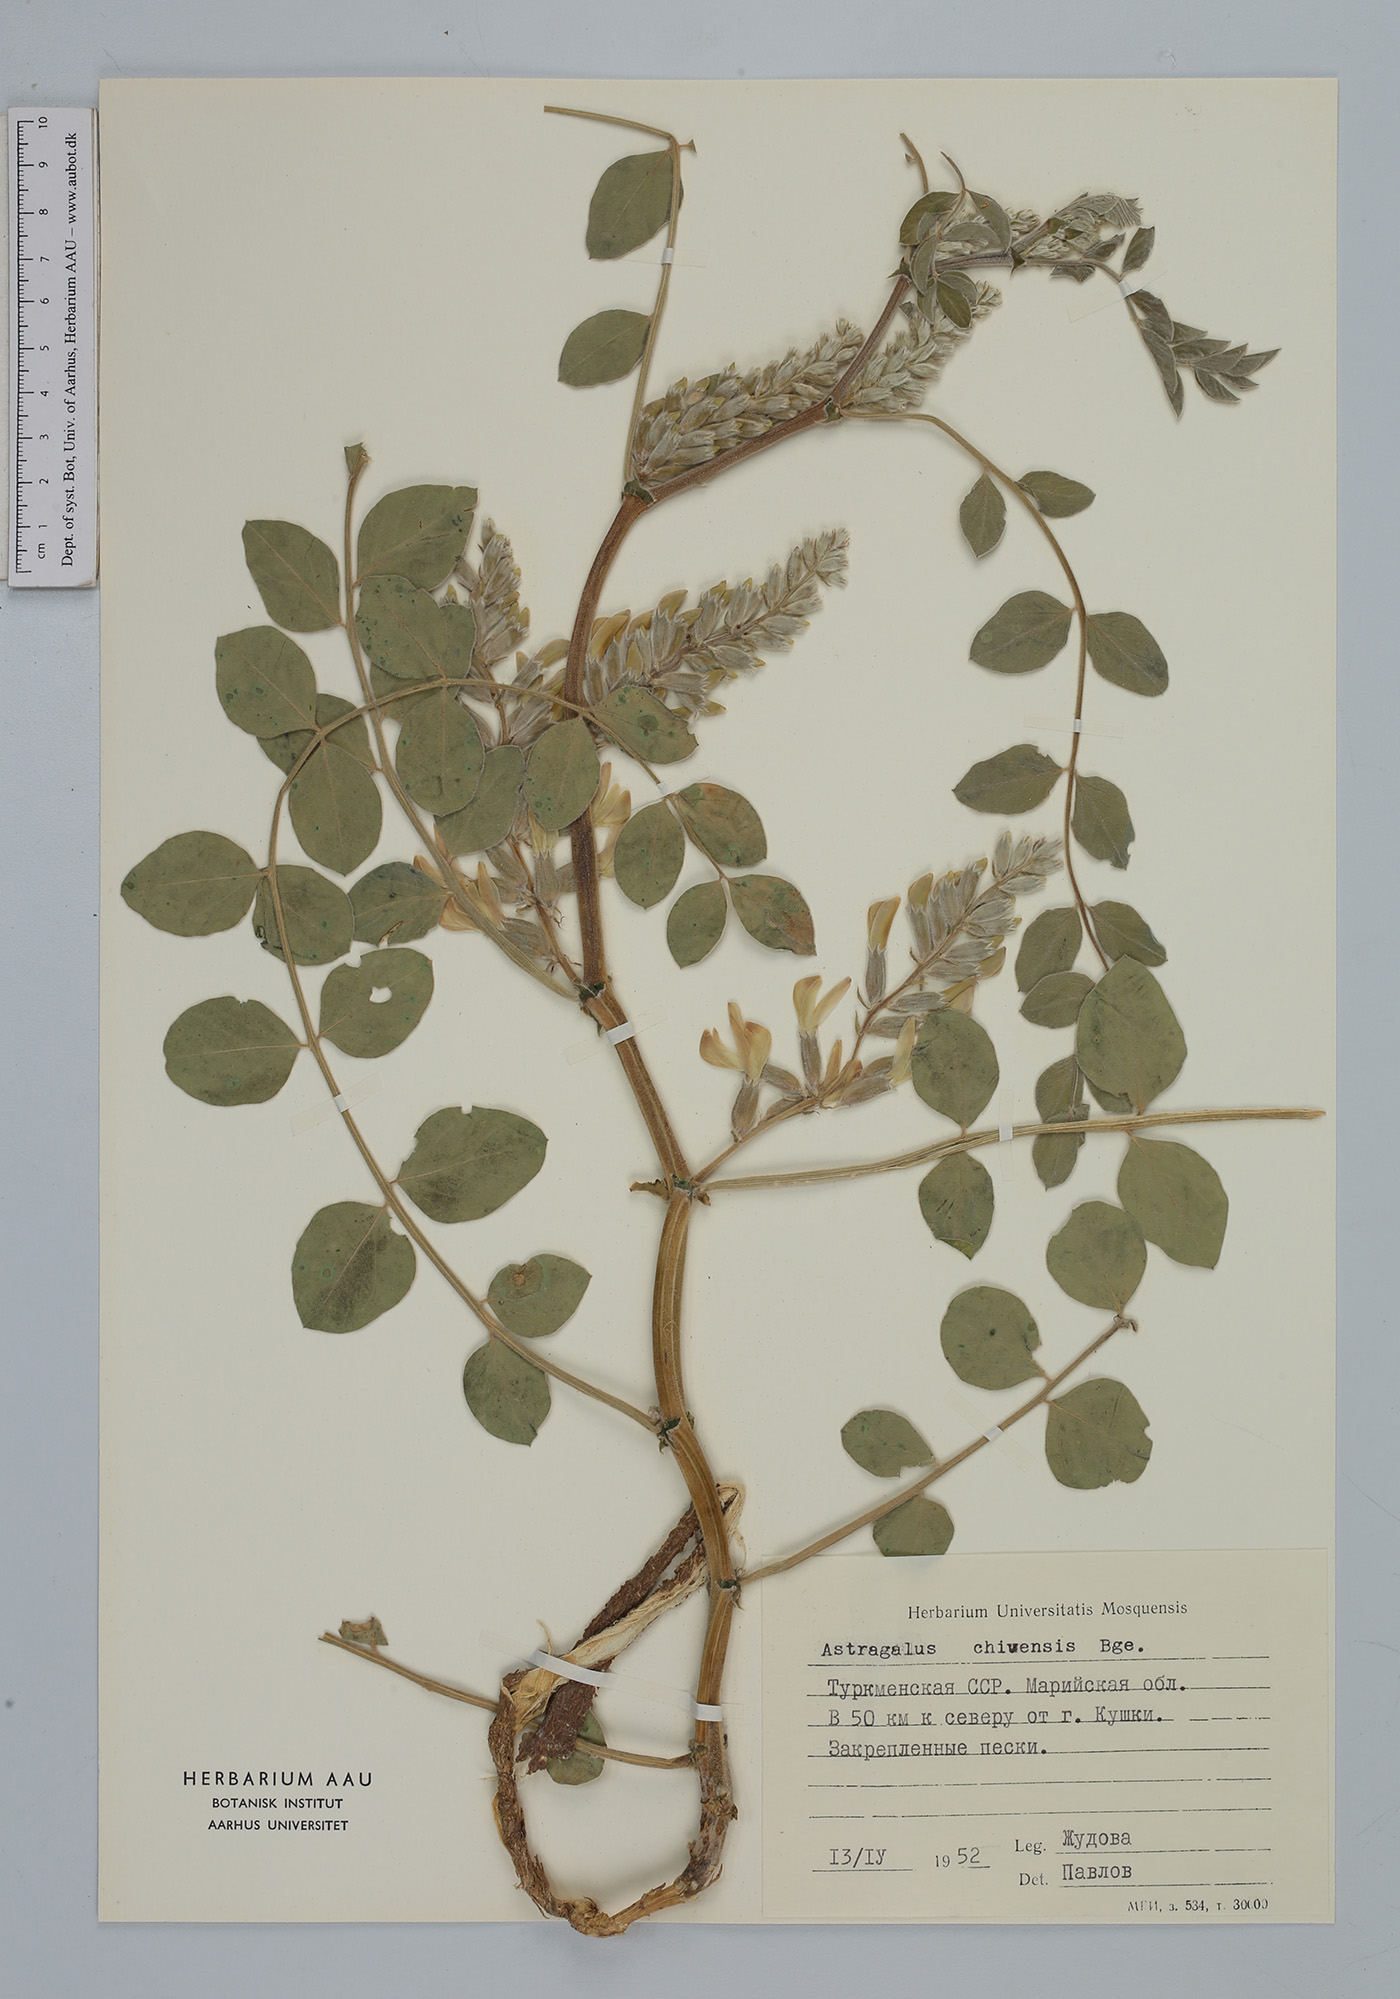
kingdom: Plantae
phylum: Tracheophyta
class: Magnoliopsida
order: Fabales
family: Fabaceae
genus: Astragalus
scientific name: Astragalus chiwensis
